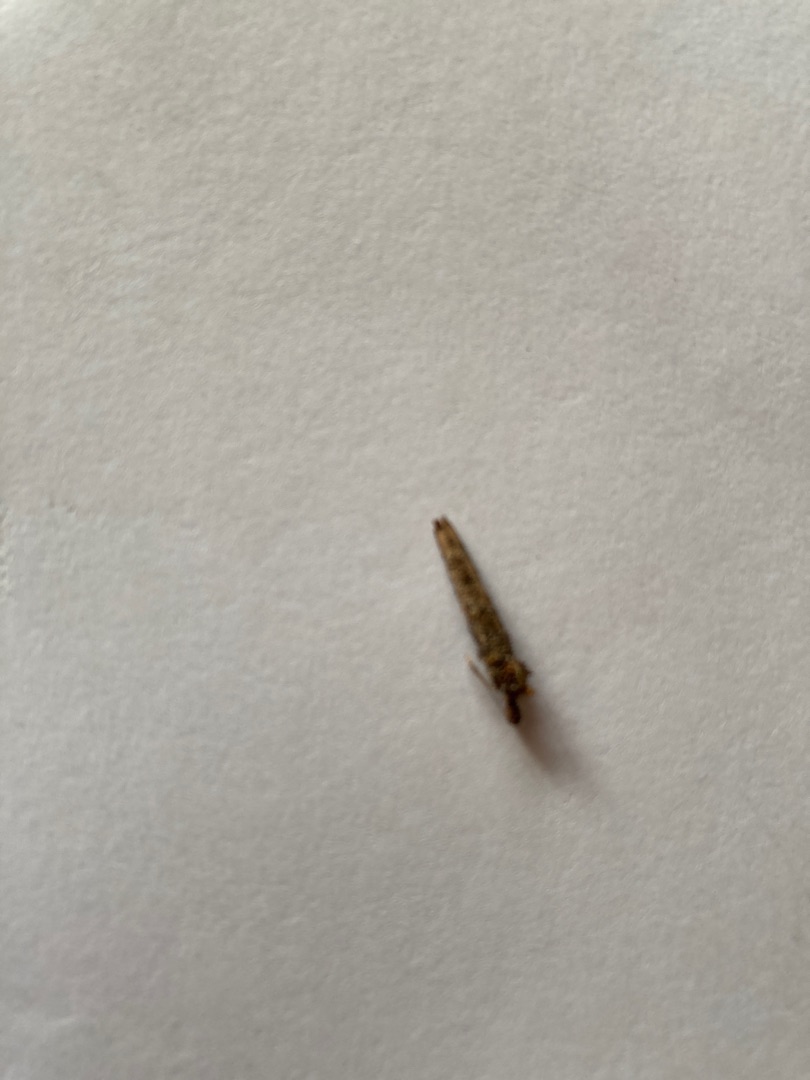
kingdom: Animalia
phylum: Arthropoda
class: Insecta
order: Lepidoptera
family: Psychidae
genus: Taleporia
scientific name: Taleporia tubulosa
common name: Cigarsækbærer
